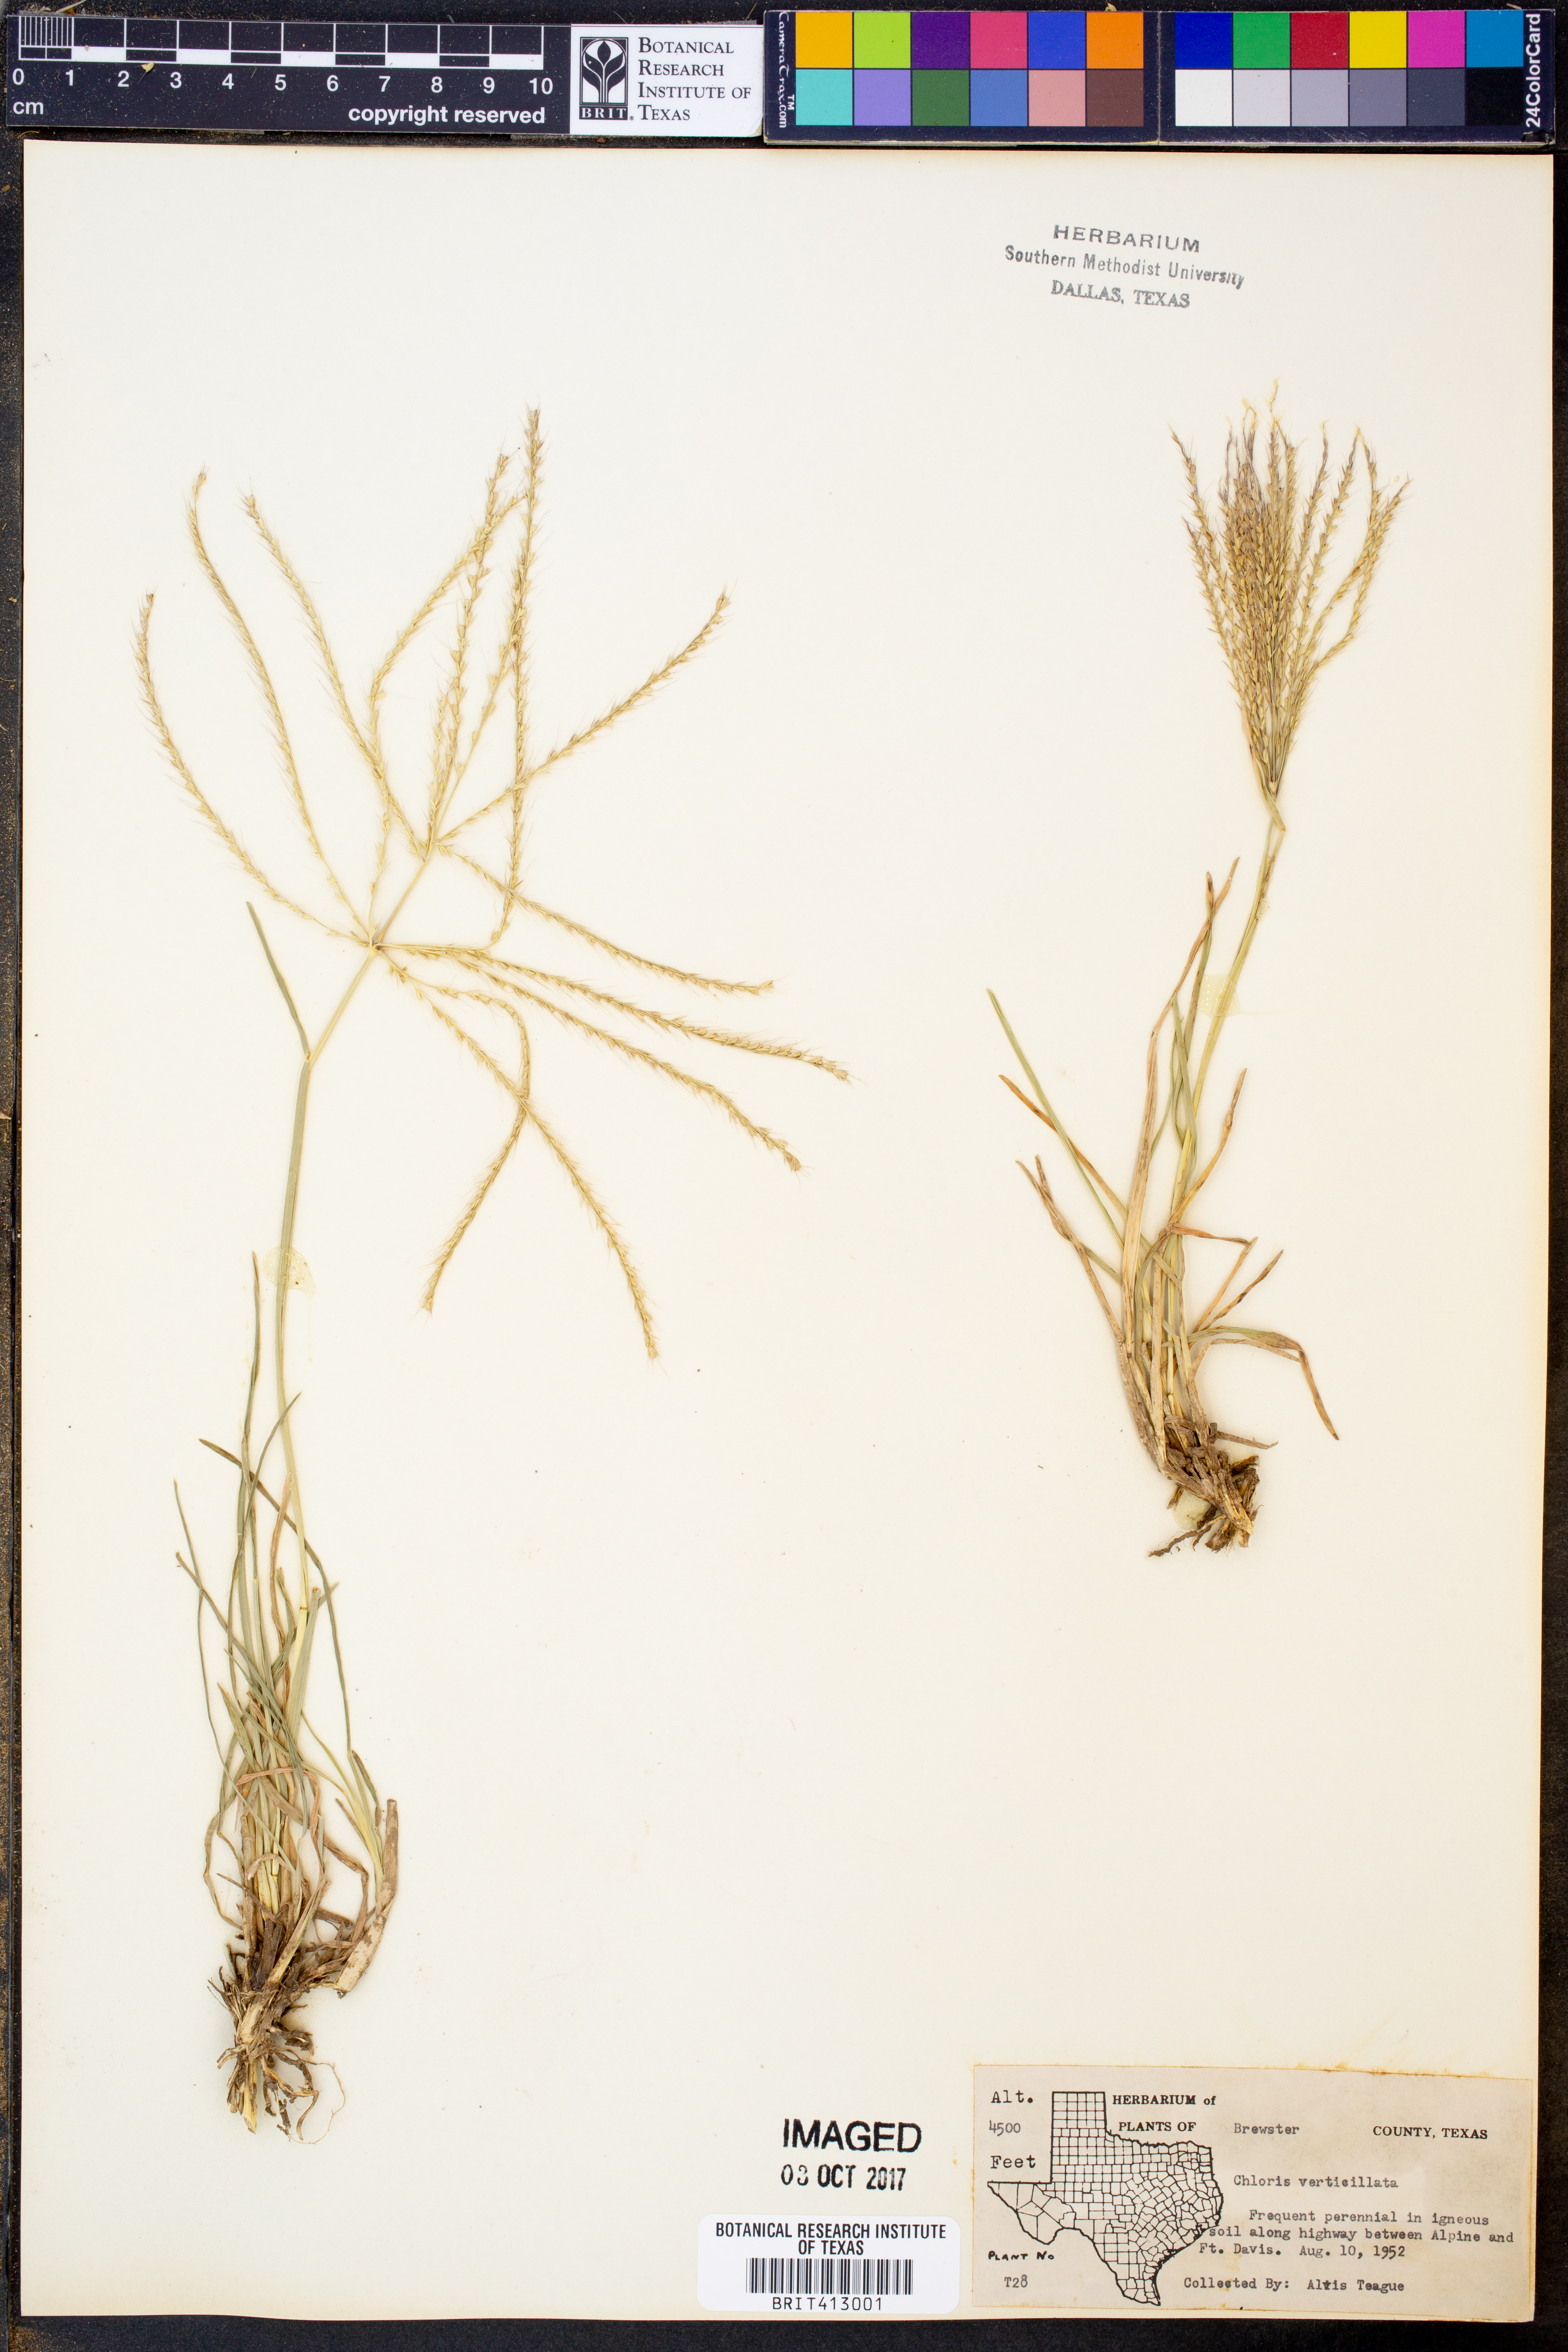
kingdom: Plantae
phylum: Tracheophyta
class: Liliopsida
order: Poales
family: Poaceae
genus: Chloris
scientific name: Chloris verticillata
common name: Tumble windmill grass
